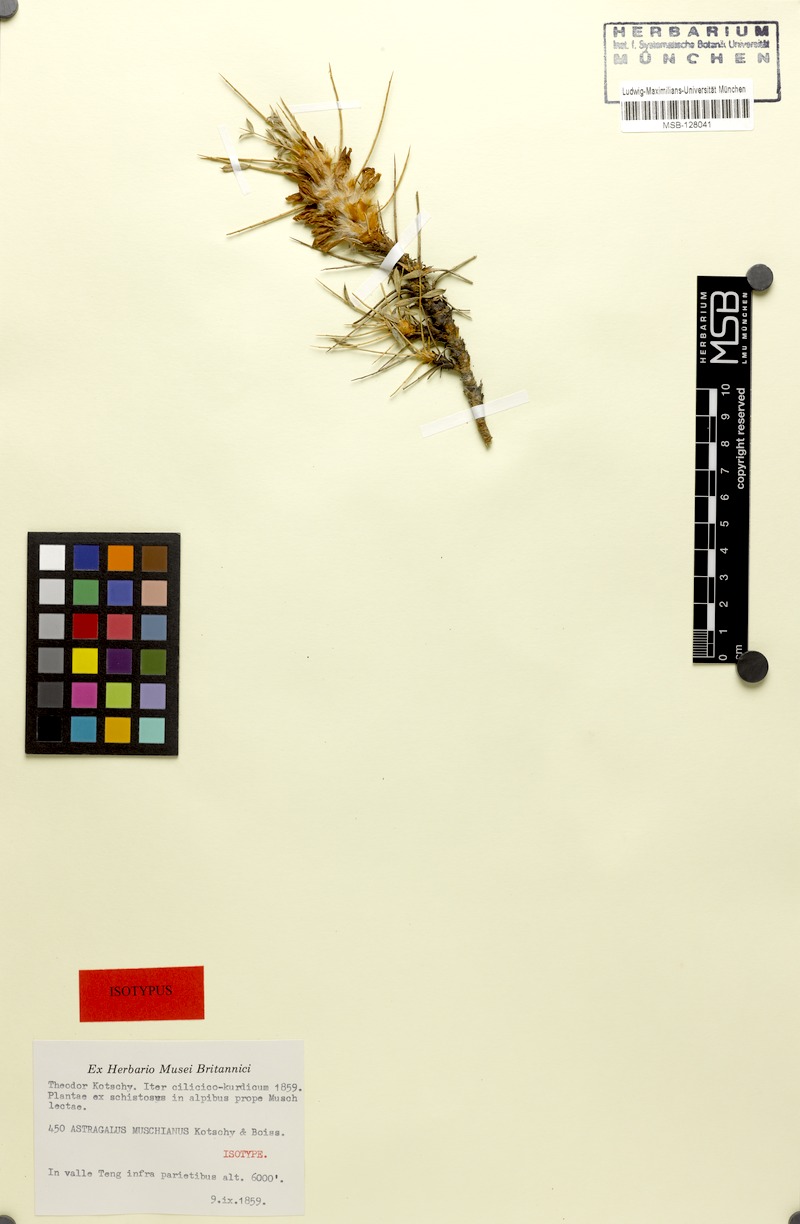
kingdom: Plantae
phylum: Tracheophyta
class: Magnoliopsida
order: Fabales
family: Fabaceae
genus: Astragalus
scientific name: Astragalus muschianus
